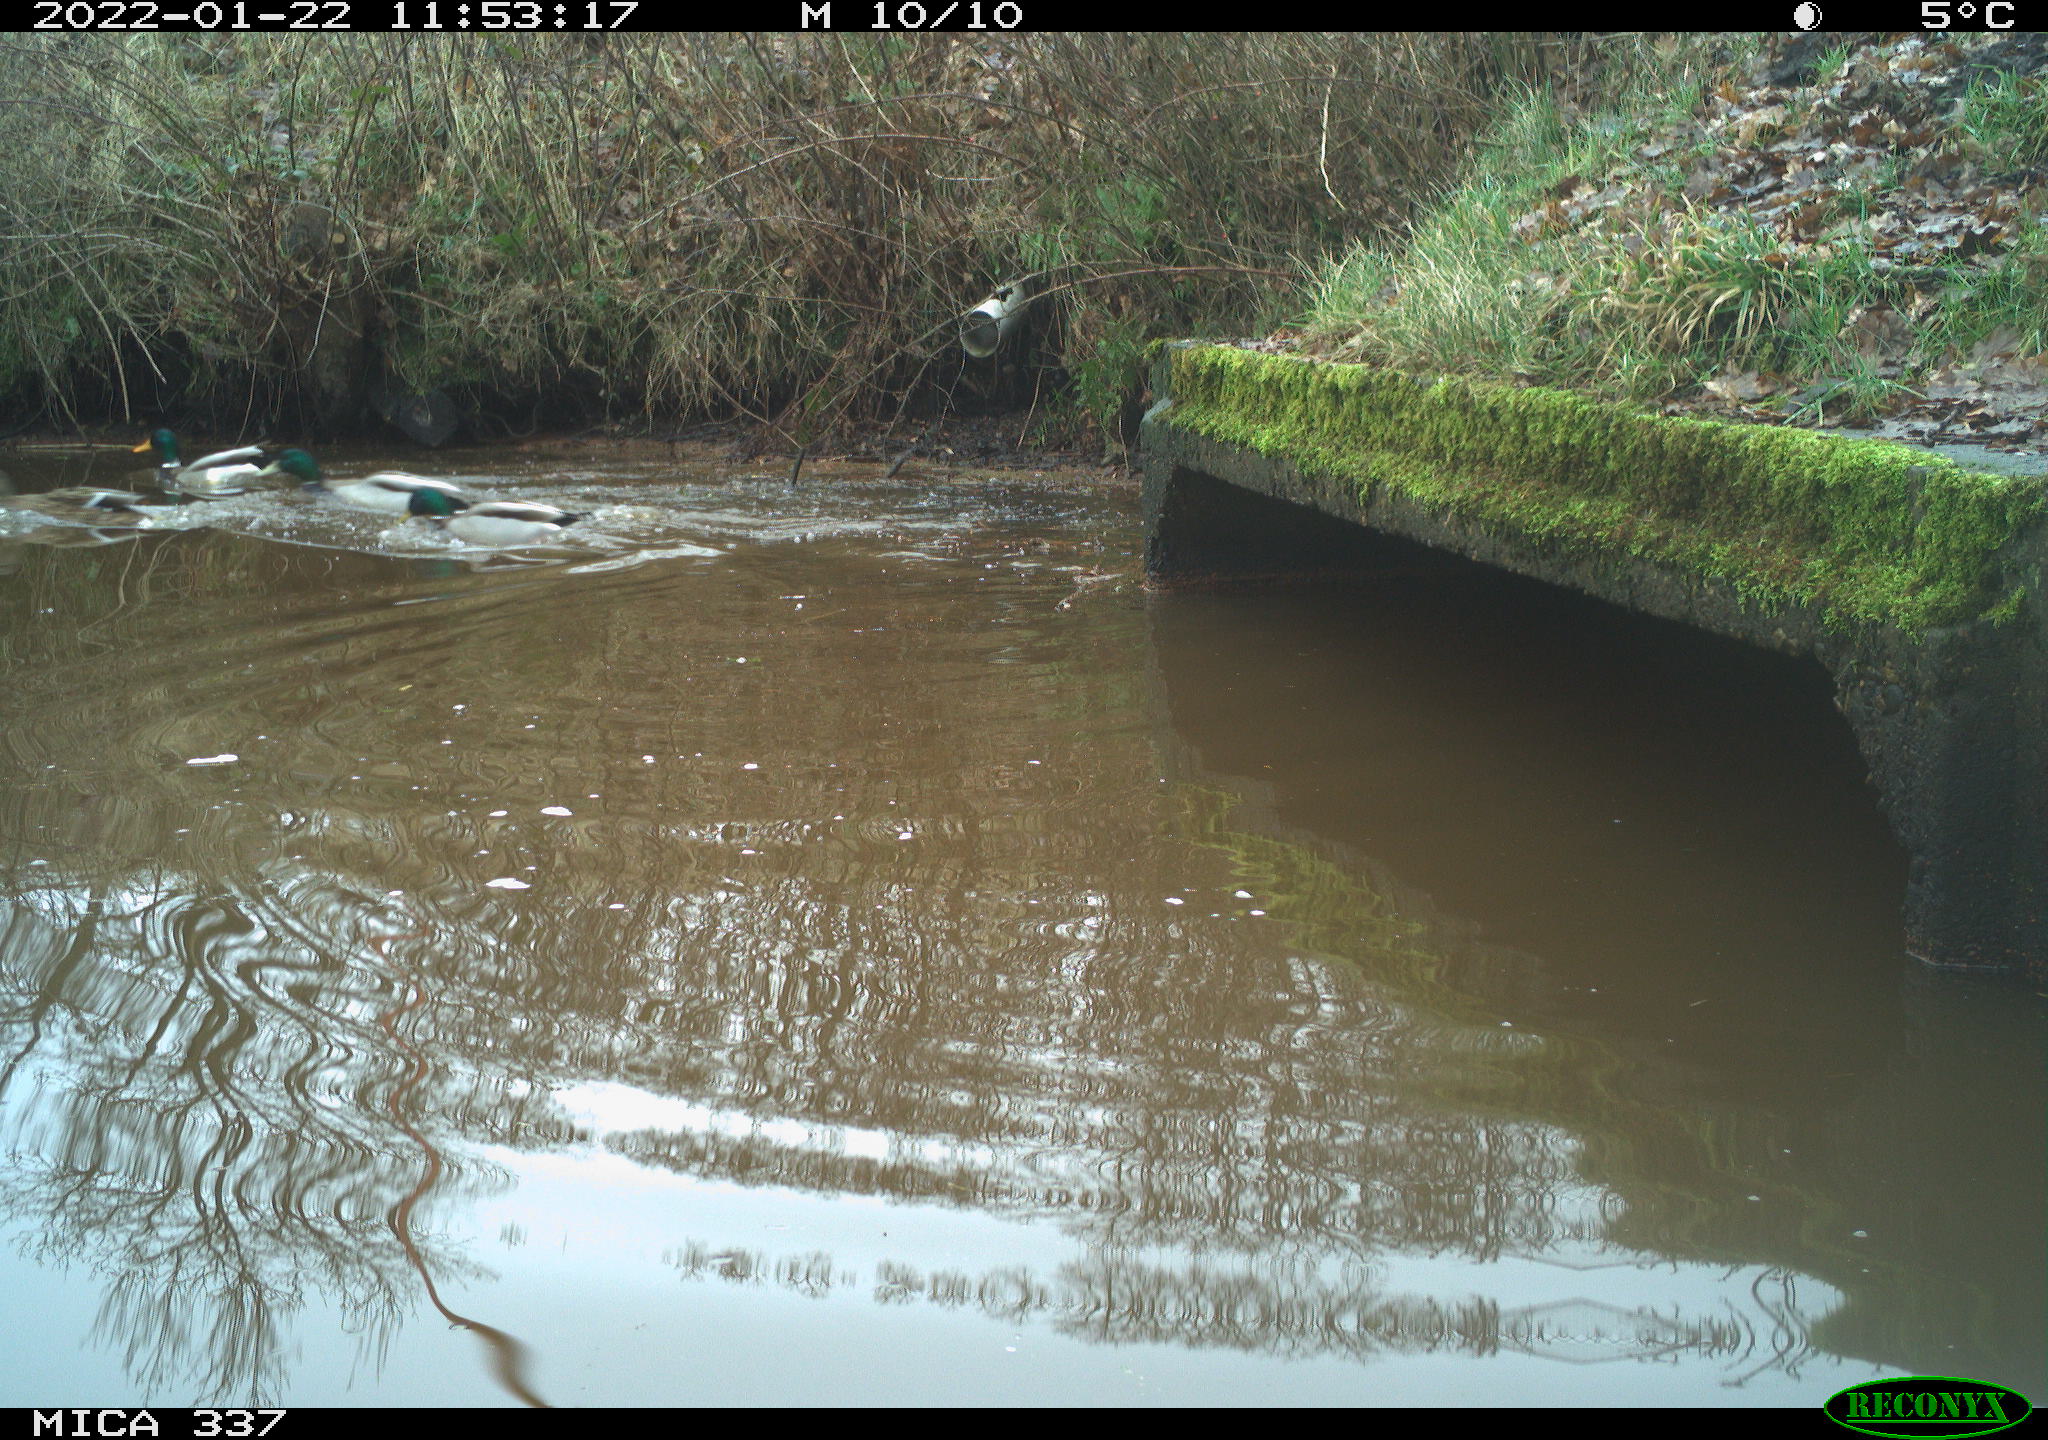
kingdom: Animalia
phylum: Chordata
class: Aves
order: Anseriformes
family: Anatidae
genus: Anas
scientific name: Anas platyrhynchos
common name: Mallard
